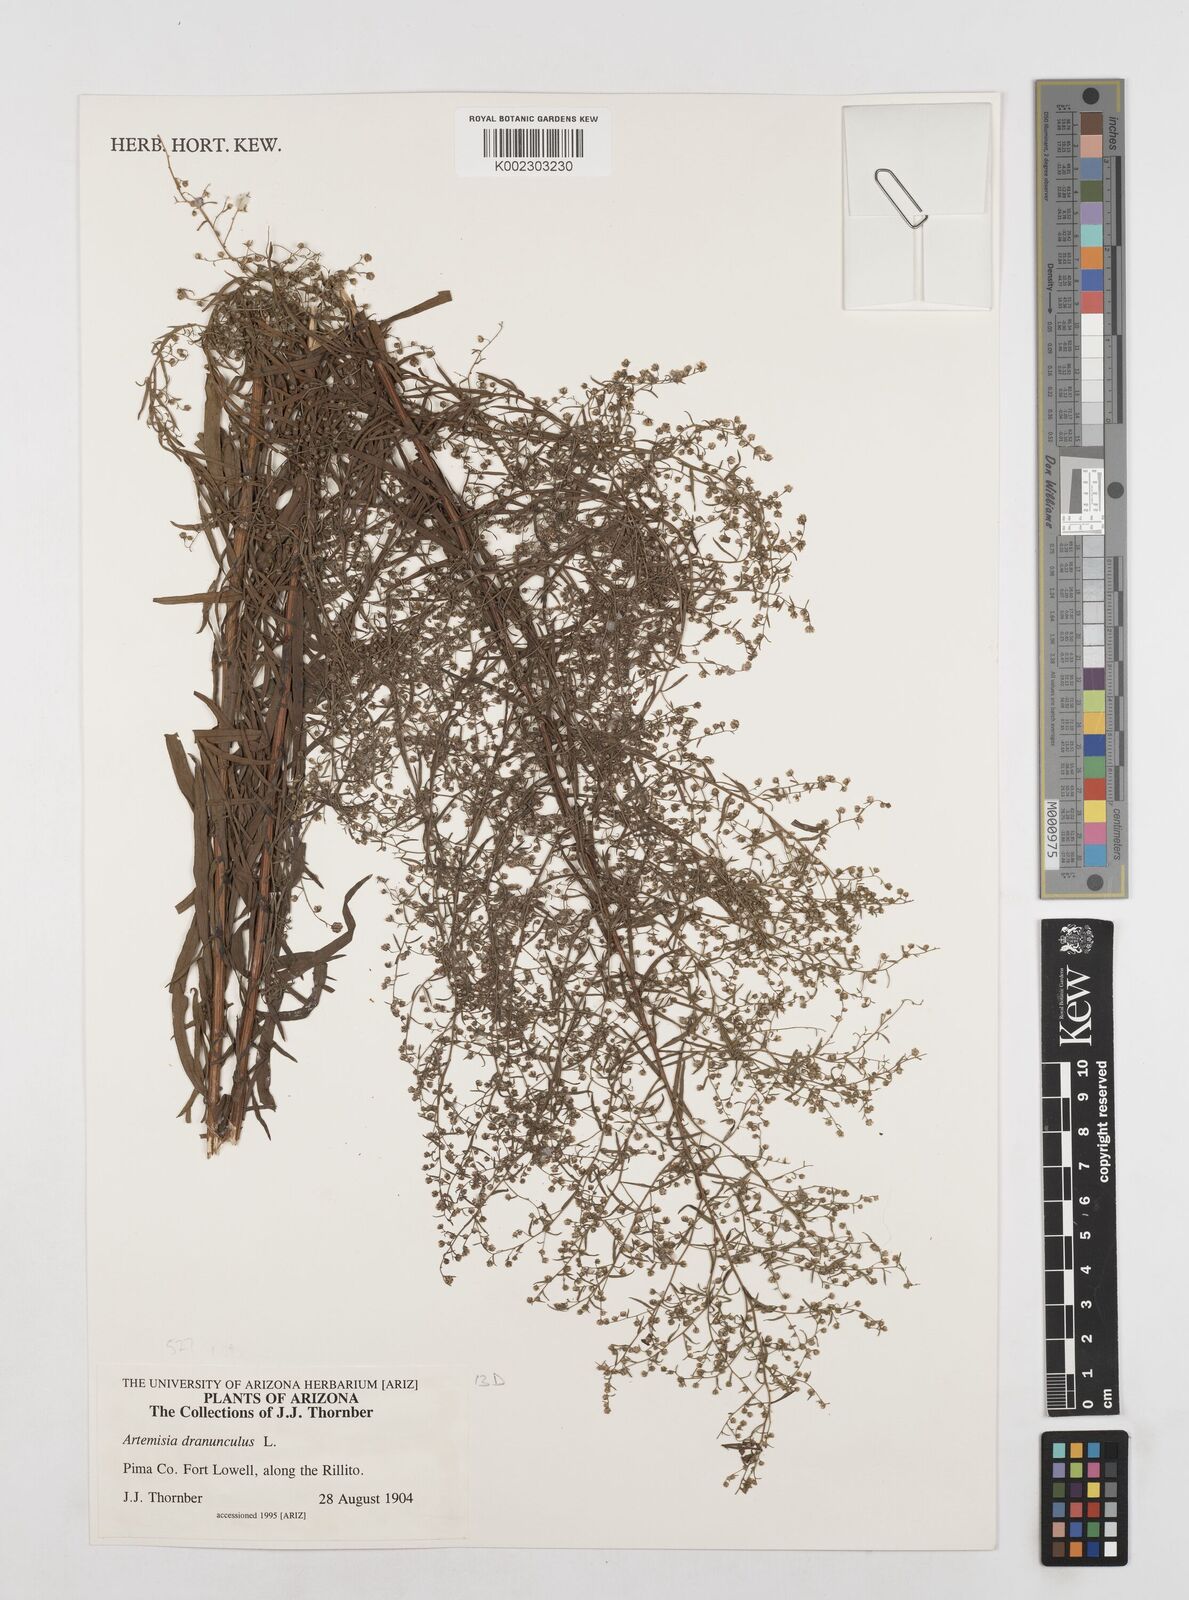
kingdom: Plantae
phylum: Tracheophyta
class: Magnoliopsida
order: Asterales
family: Asteraceae
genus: Artemisia
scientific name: Artemisia dracunculus
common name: Tarragon
